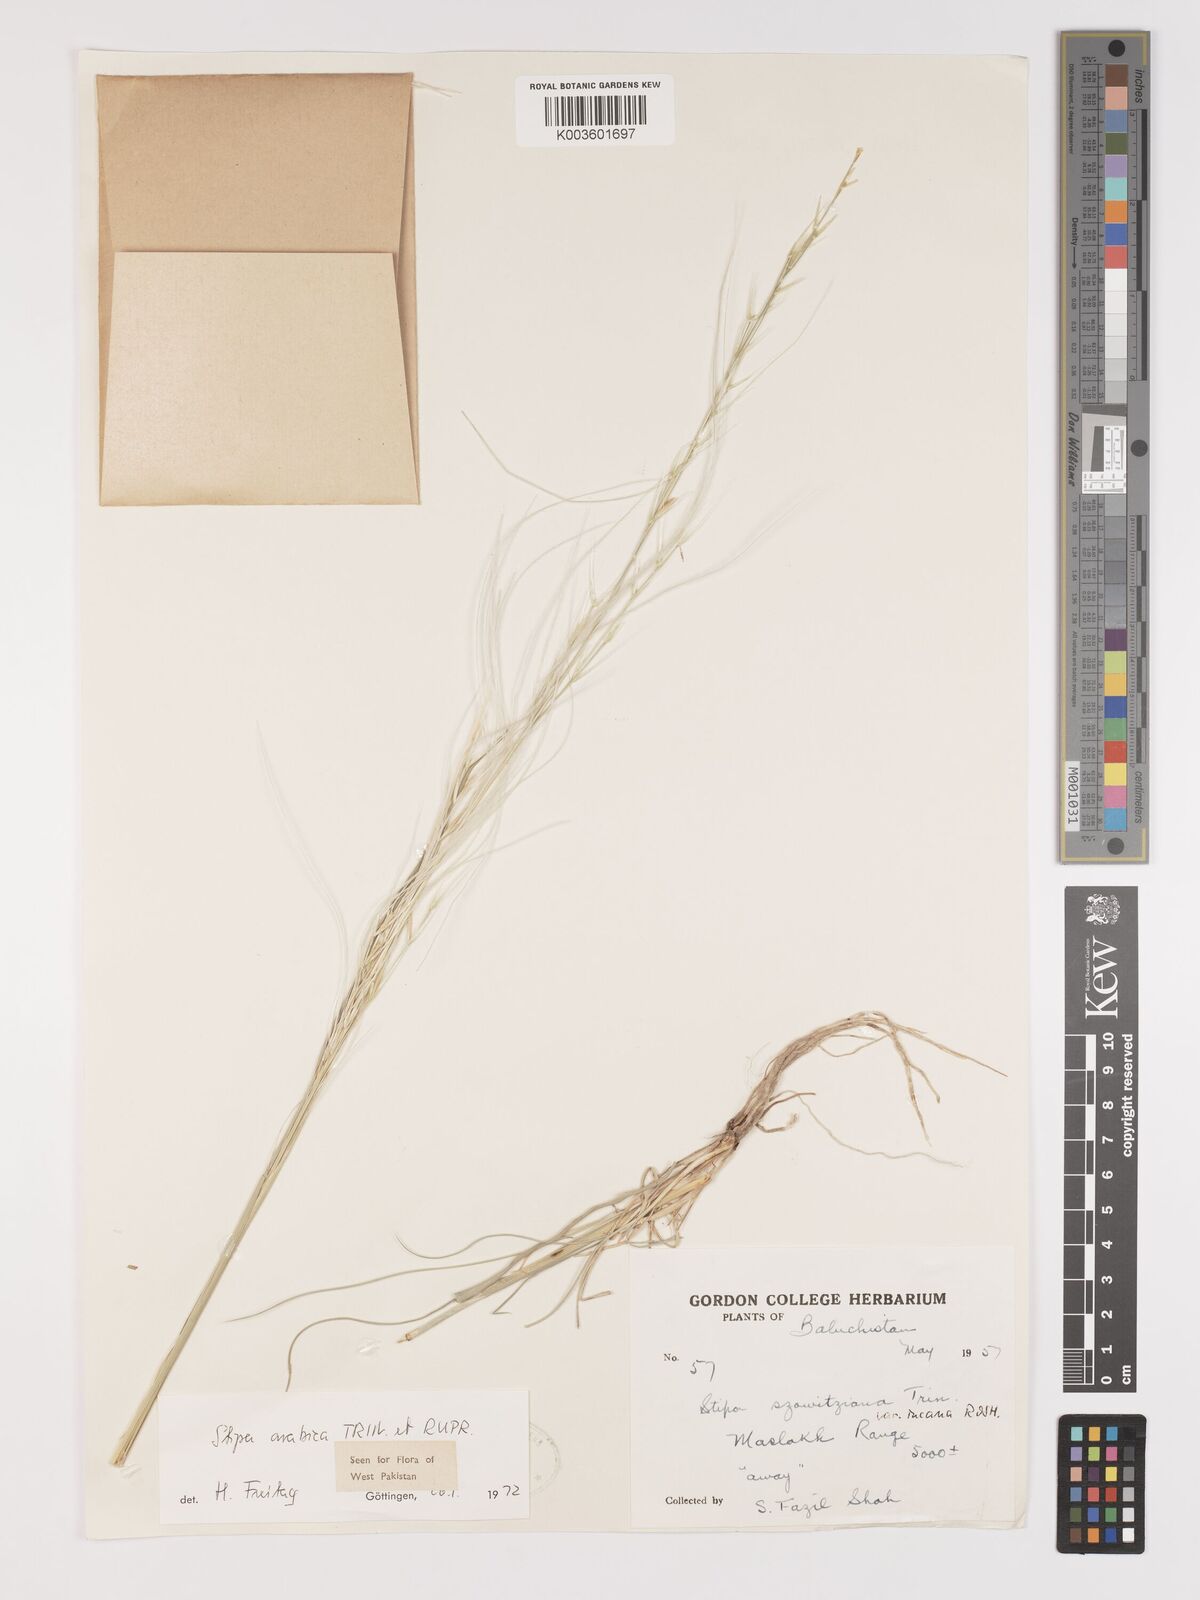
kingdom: Plantae
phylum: Tracheophyta
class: Liliopsida
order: Poales
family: Poaceae
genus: Stipa
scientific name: Stipa arabica
